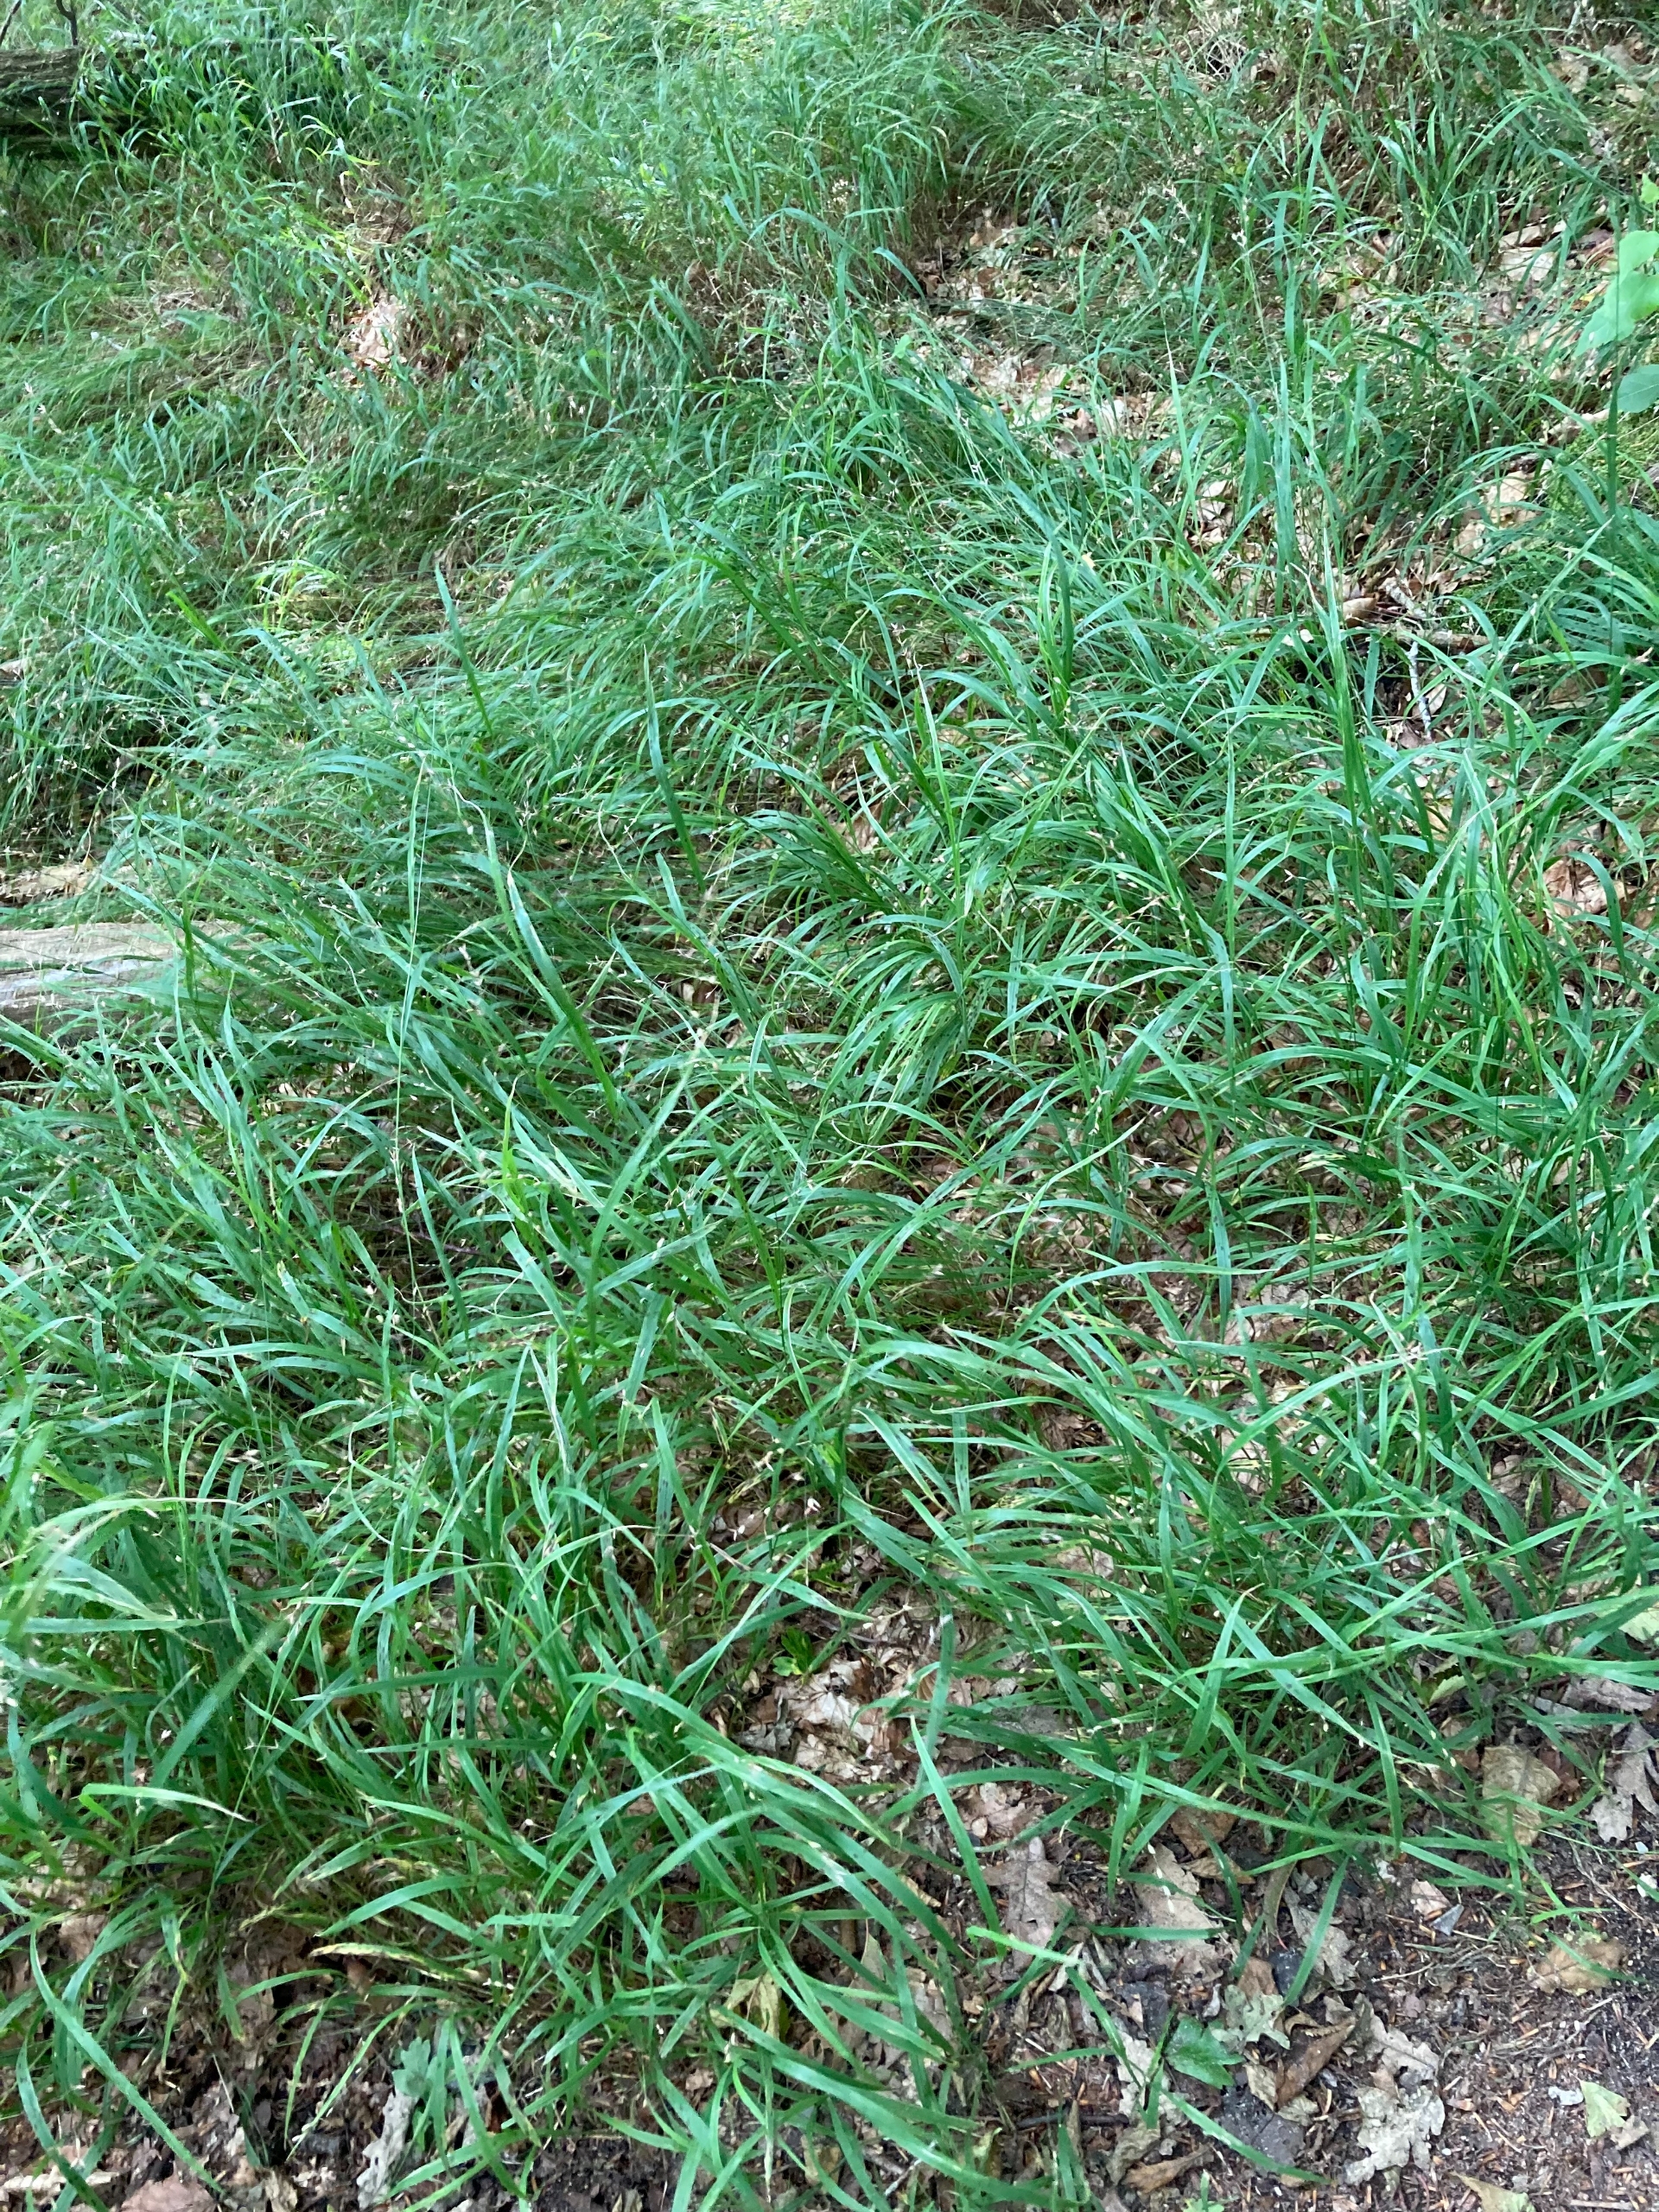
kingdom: Plantae
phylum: Tracheophyta
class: Liliopsida
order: Poales
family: Poaceae
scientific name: Poaceae
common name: Græsfamilien
